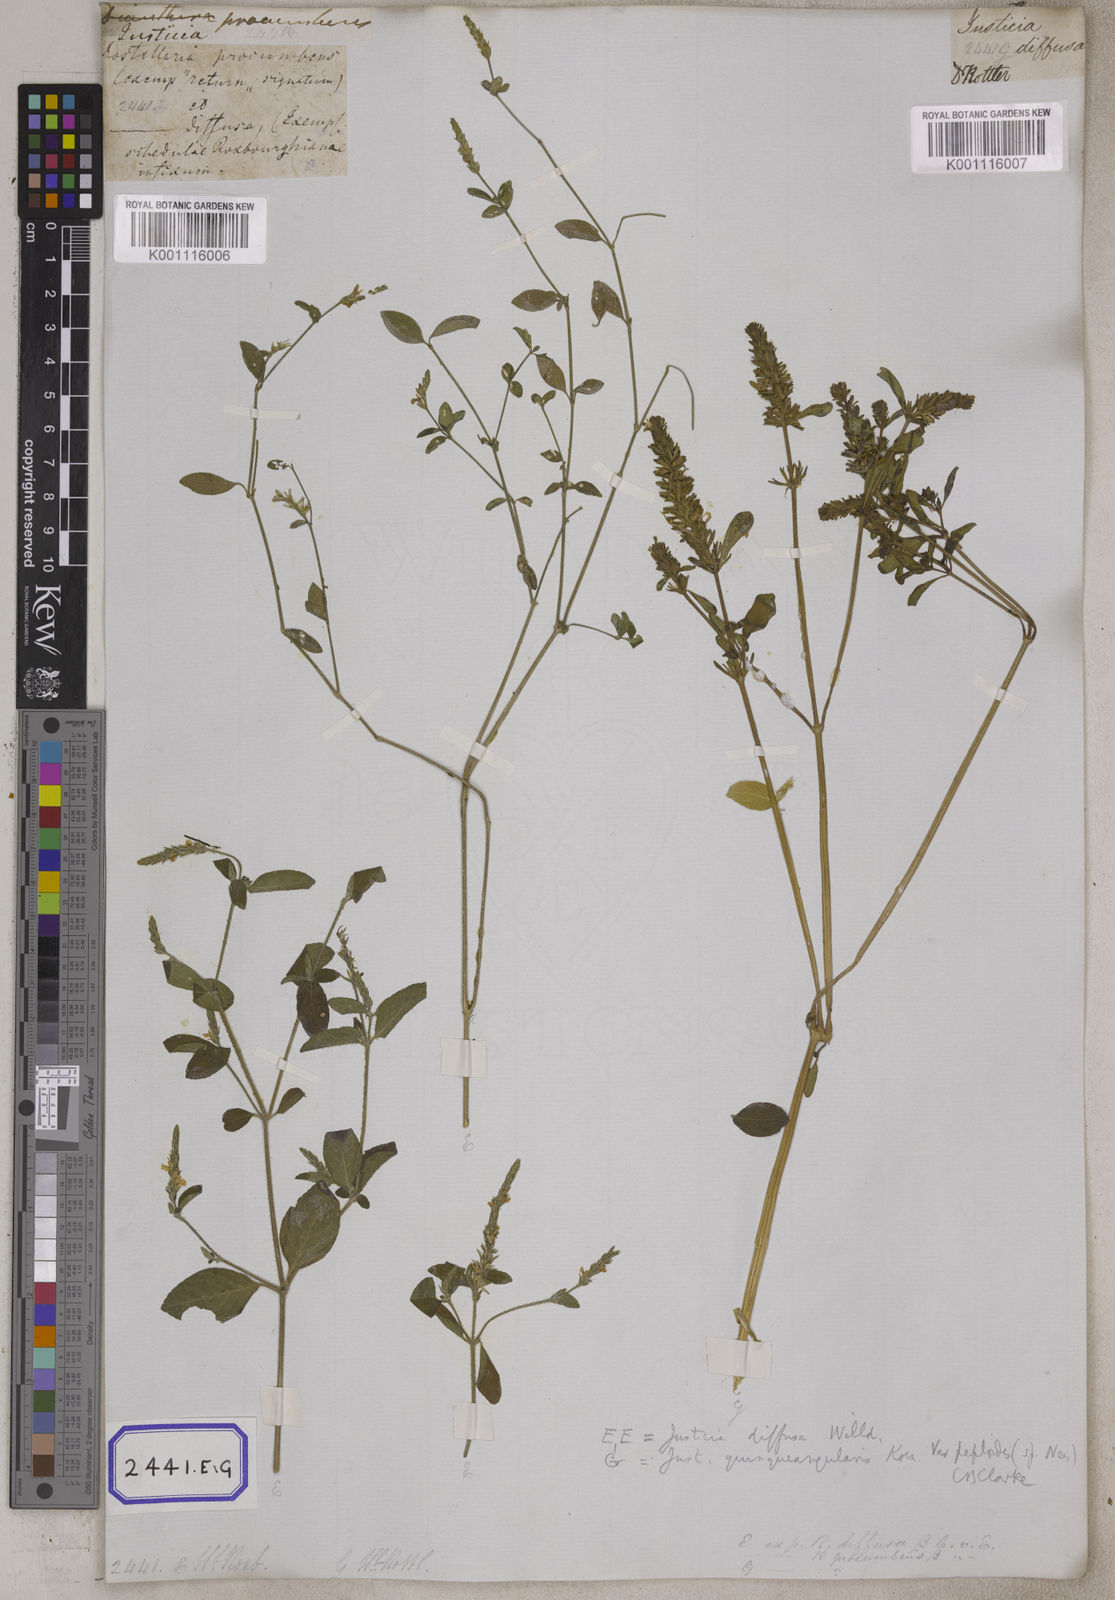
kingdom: Plantae
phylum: Tracheophyta
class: Magnoliopsida
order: Lamiales
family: Acanthaceae
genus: Rostellularia
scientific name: Rostellularia procumbens
